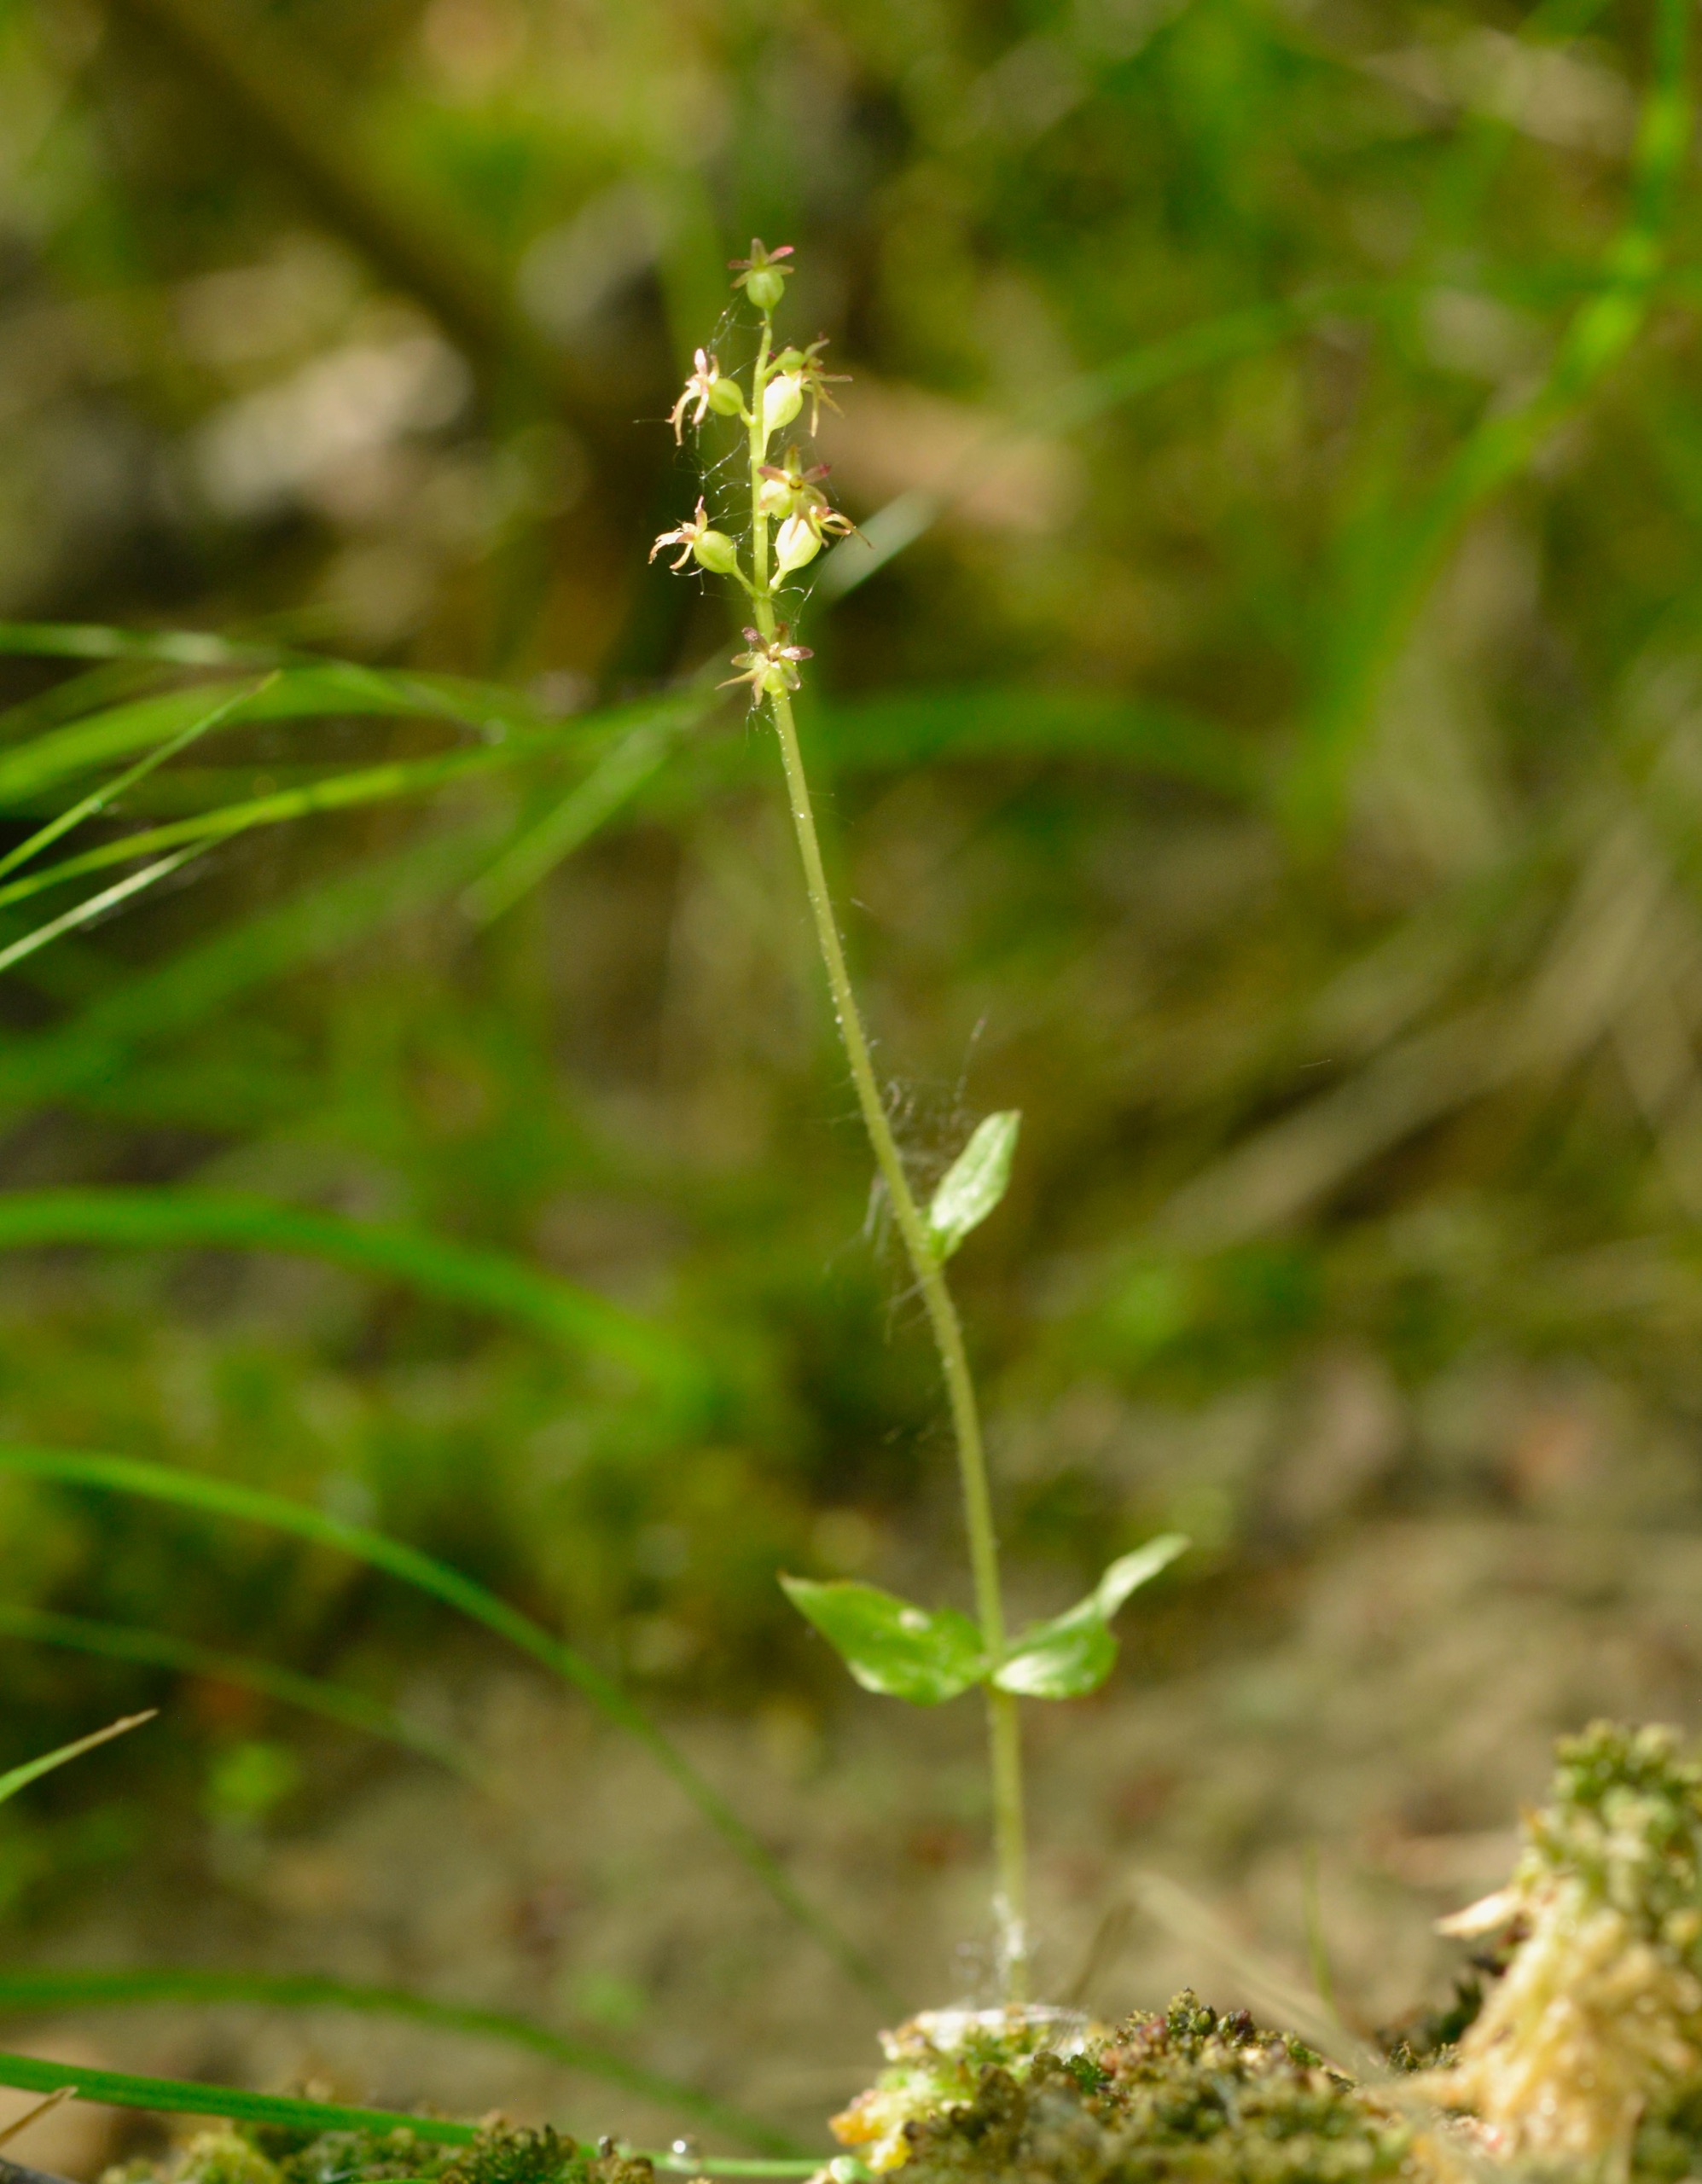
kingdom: Plantae
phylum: Tracheophyta
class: Liliopsida
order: Asparagales
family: Orchidaceae
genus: Neottia
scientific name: Neottia cordata
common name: Hjertebladet fliglæbe
